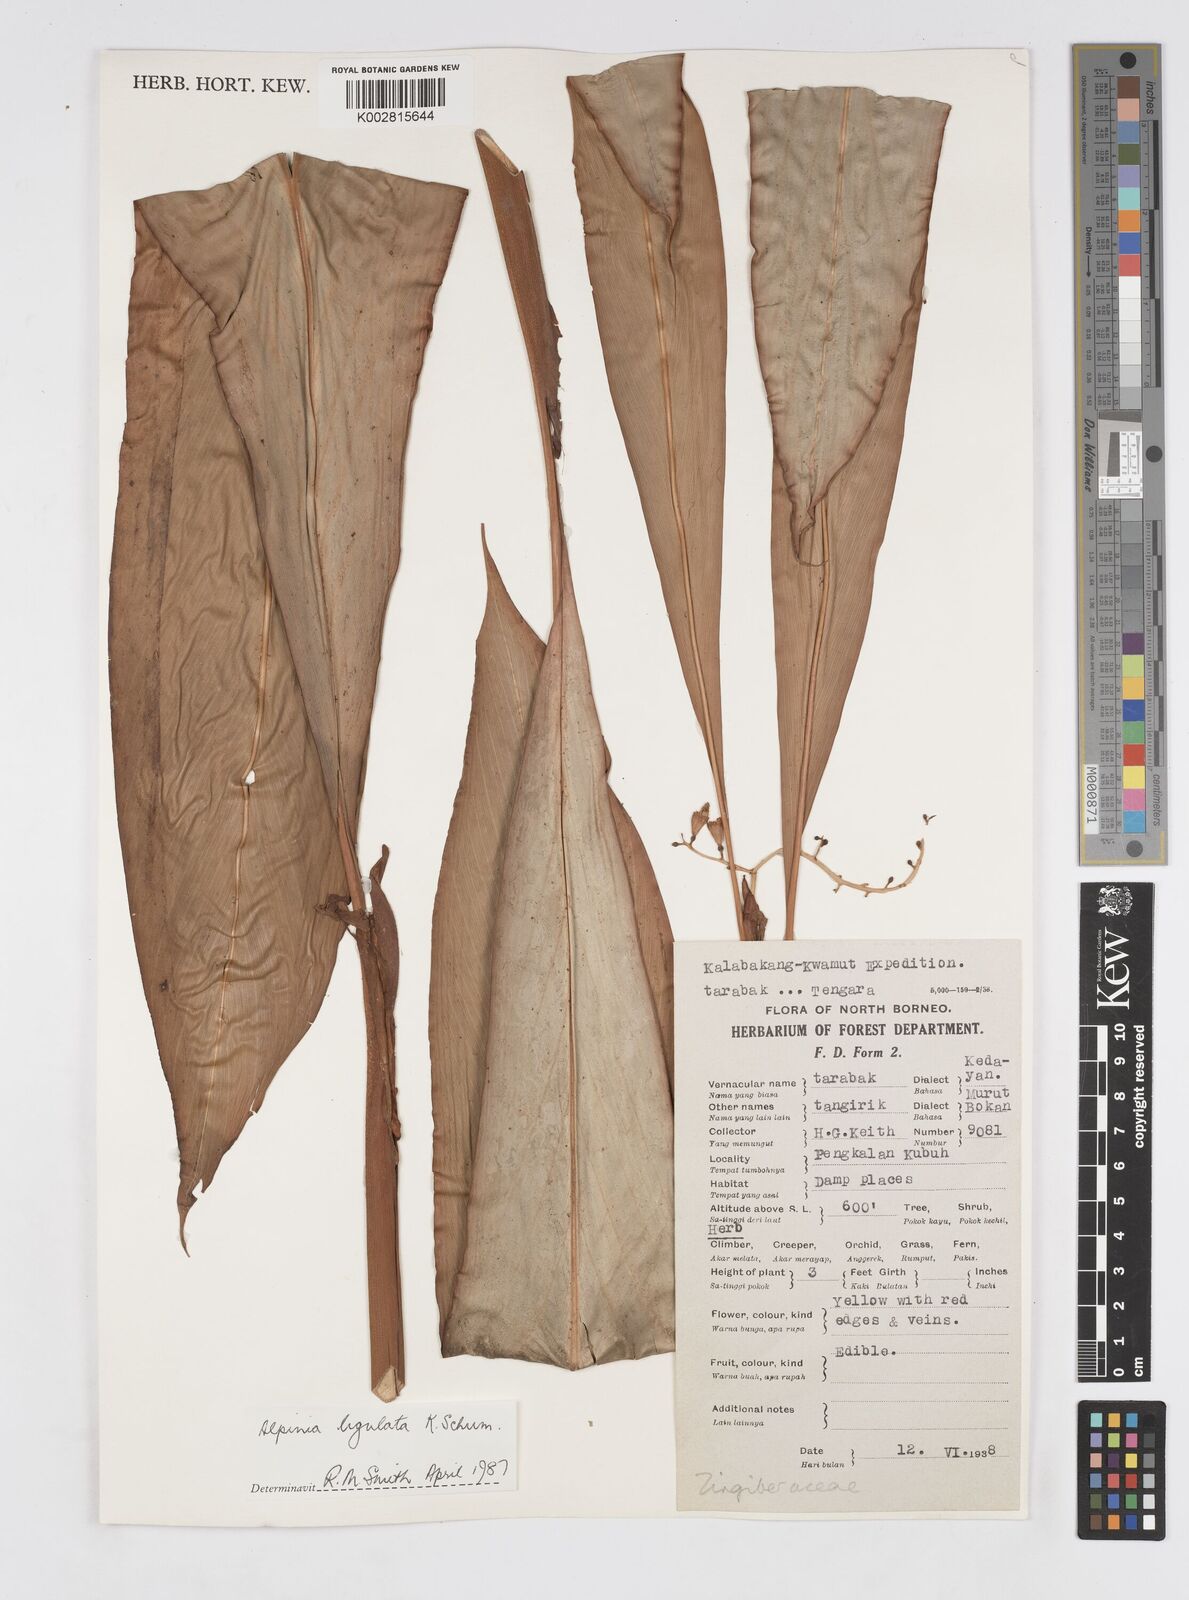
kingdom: Plantae
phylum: Tracheophyta
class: Liliopsida
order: Zingiberales
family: Zingiberaceae
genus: Alpinia
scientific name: Alpinia ligulata
